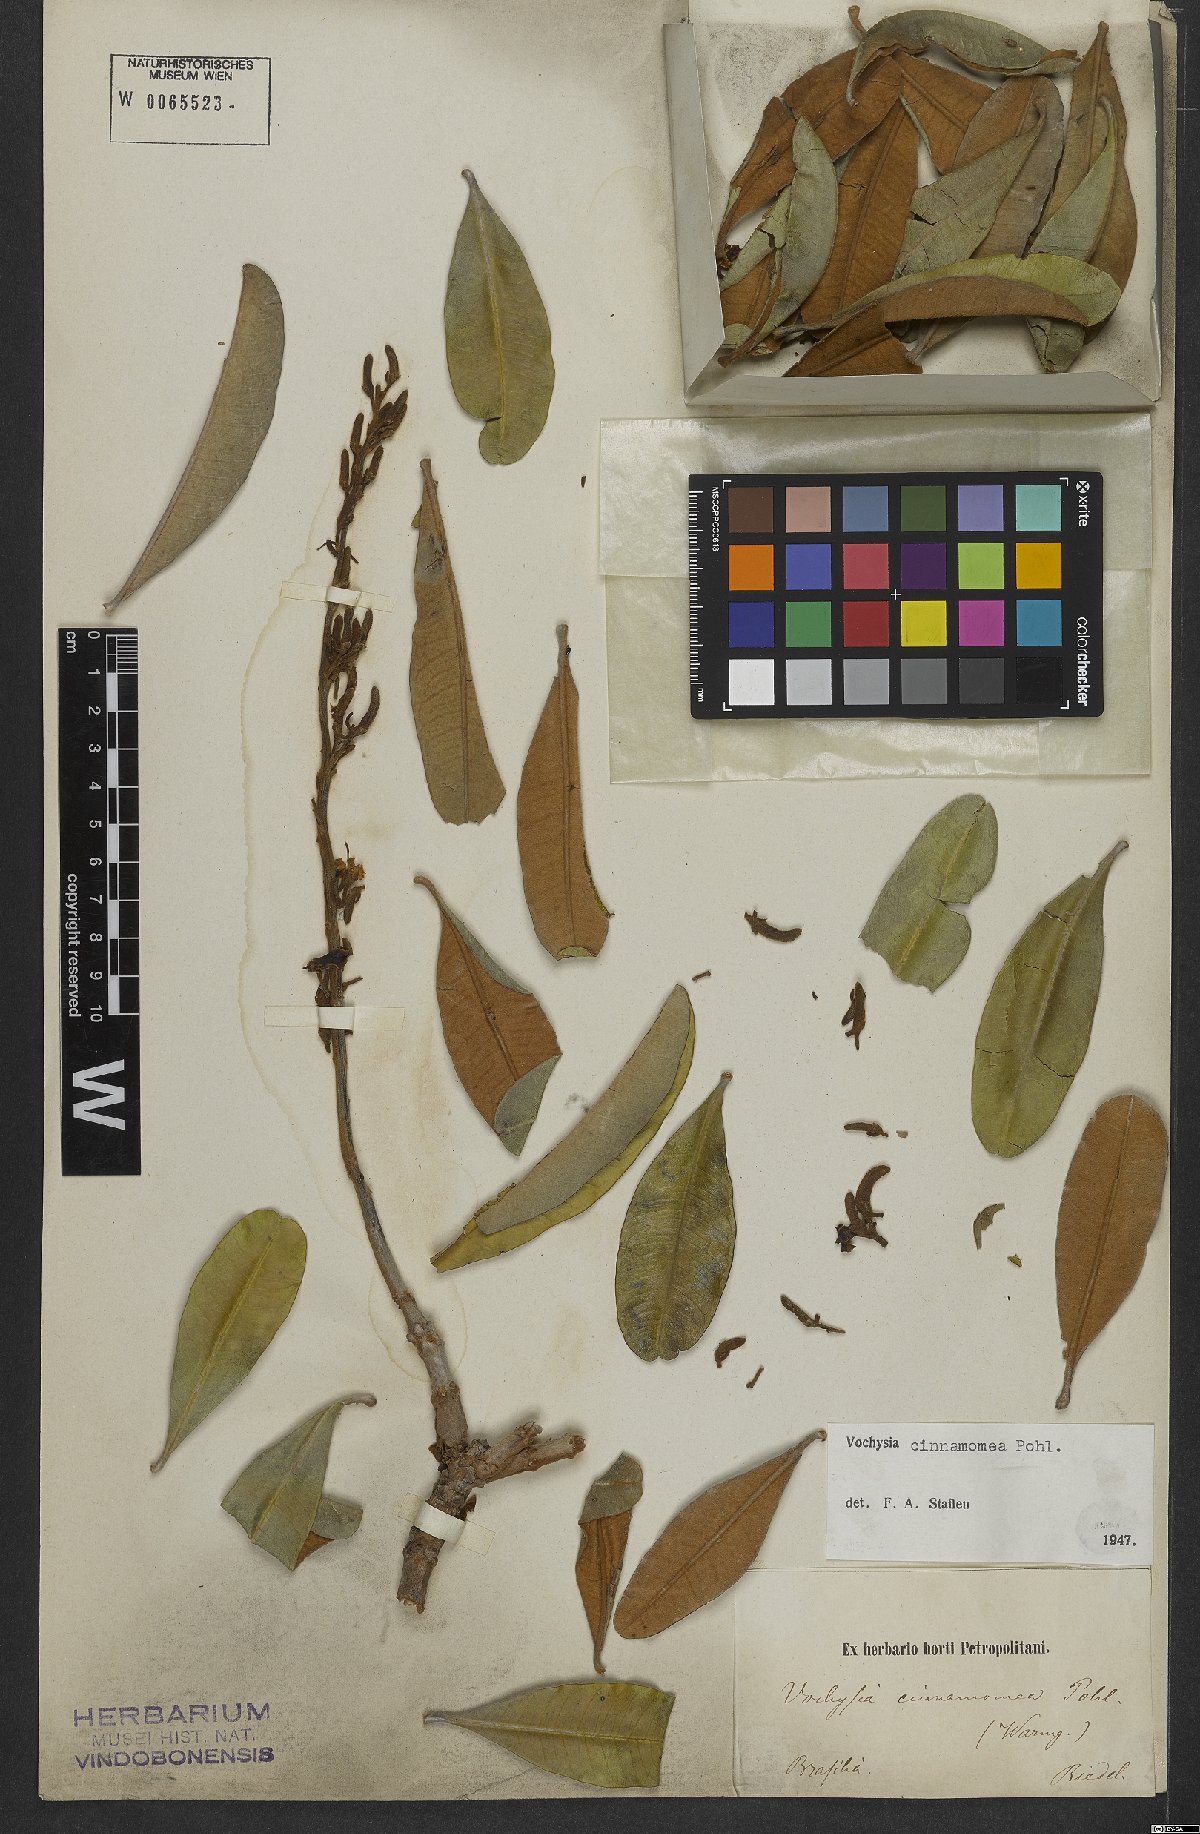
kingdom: Plantae
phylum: Tracheophyta
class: Magnoliopsida
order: Myrtales
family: Vochysiaceae
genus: Vochysia
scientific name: Vochysia cinnamomea
